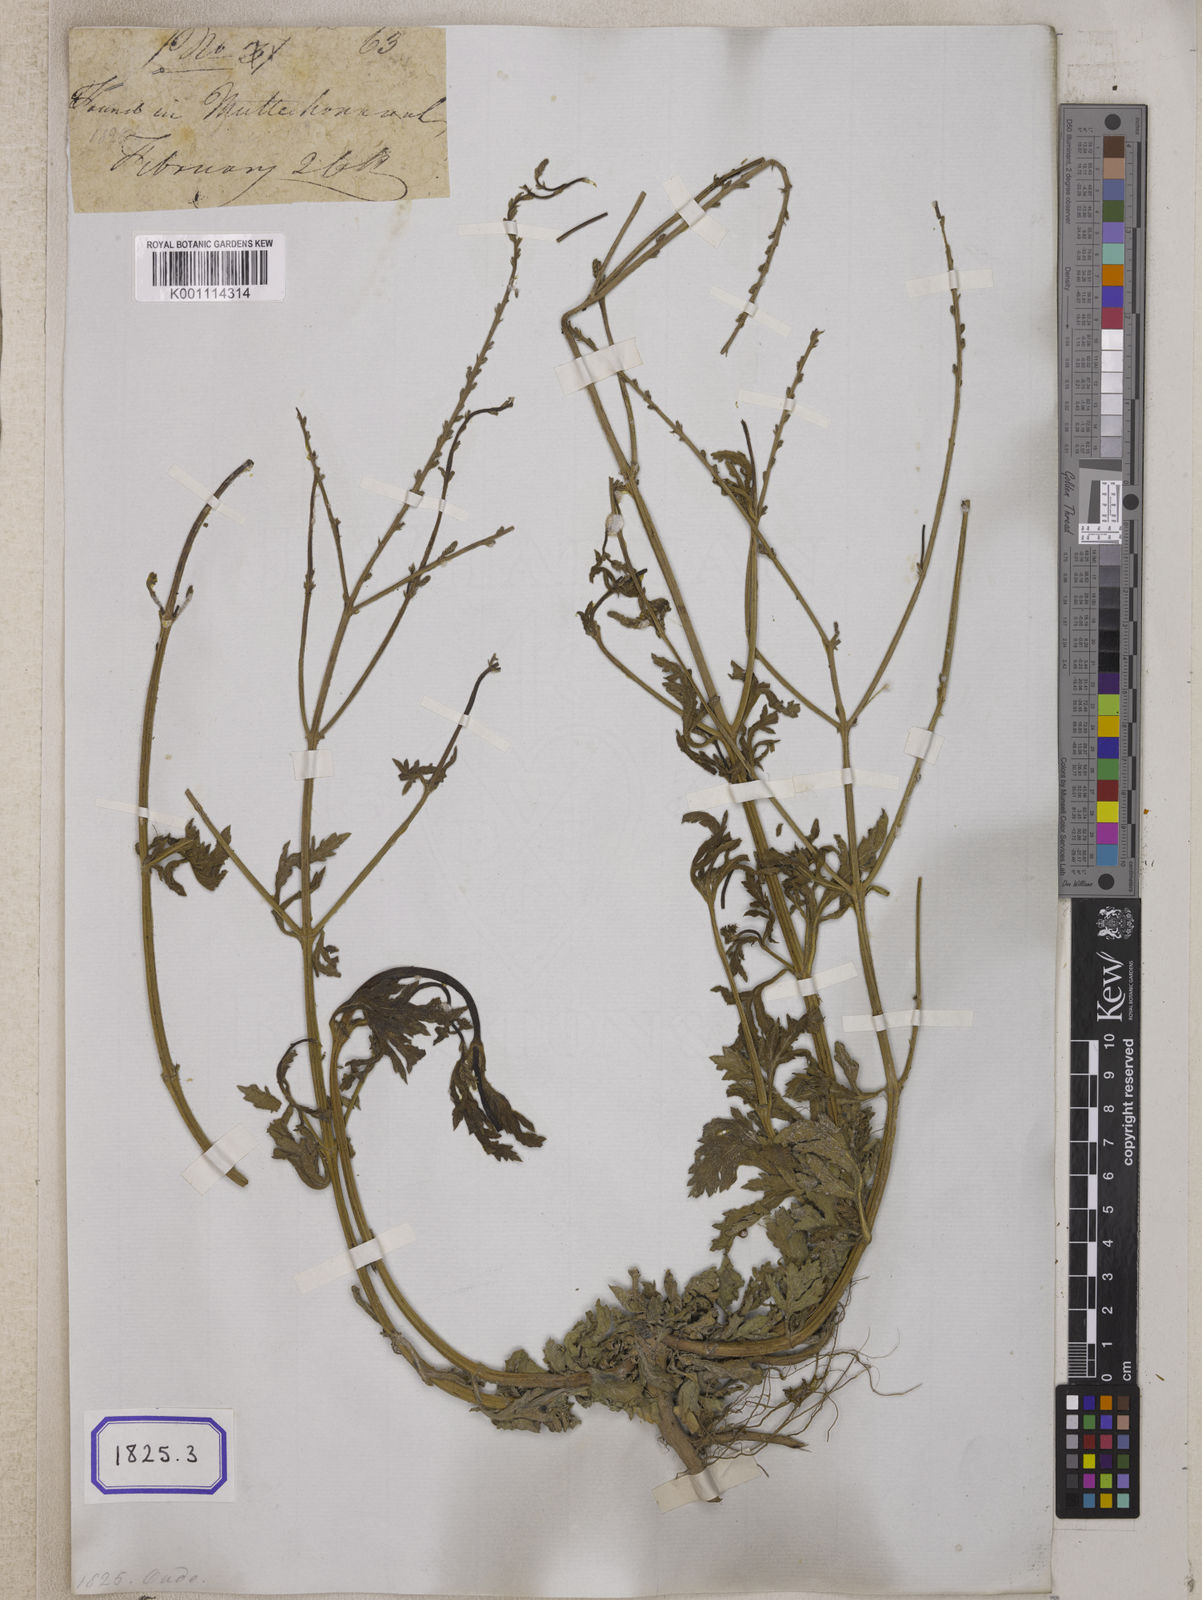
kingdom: Plantae
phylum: Tracheophyta
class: Magnoliopsida
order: Lamiales
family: Verbenaceae
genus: Verbena
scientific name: Verbena officinalis
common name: Vervain
